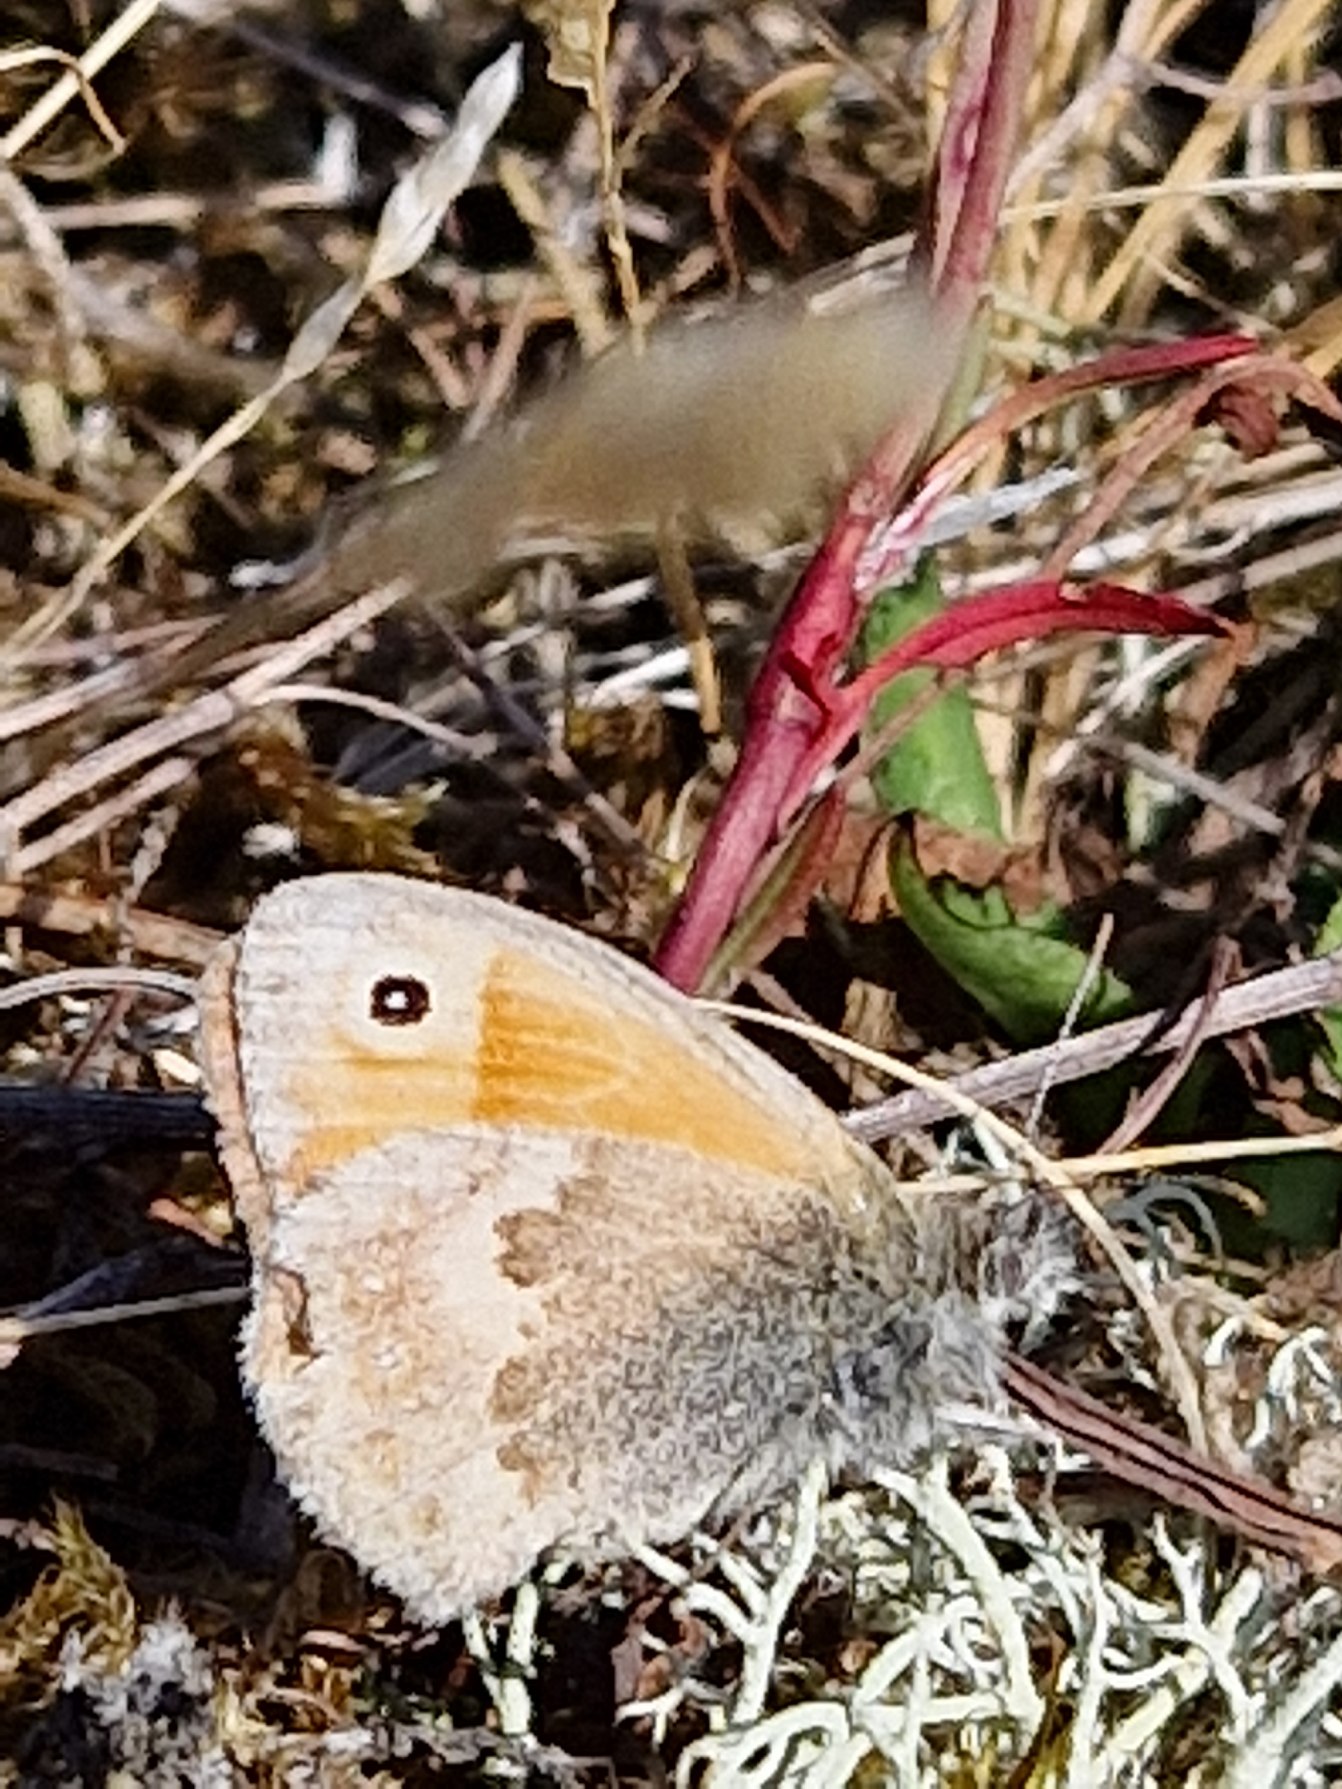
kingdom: Animalia
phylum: Arthropoda
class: Insecta
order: Lepidoptera
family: Nymphalidae
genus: Coenonympha
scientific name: Coenonympha pamphilus
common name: Okkergul randøje
